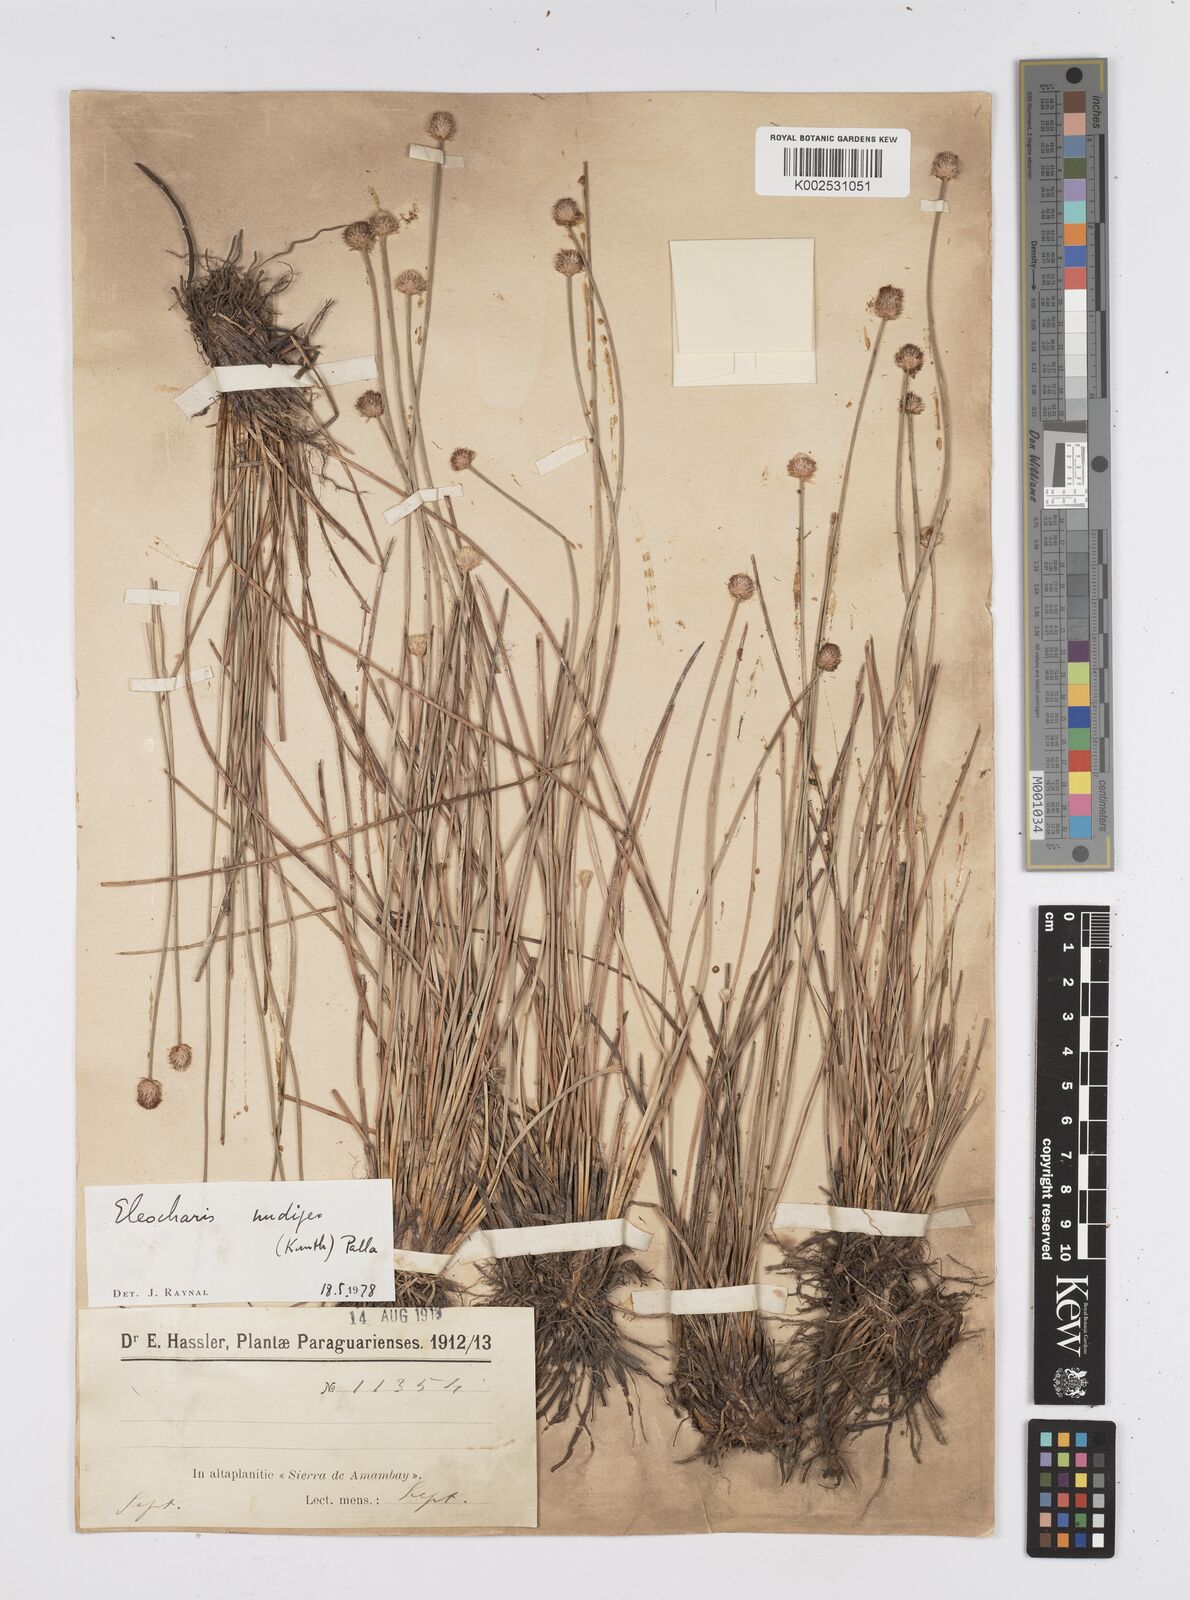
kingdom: Plantae
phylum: Tracheophyta
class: Liliopsida
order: Poales
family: Cyperaceae
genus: Eleocharis
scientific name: Eleocharis nudipes
